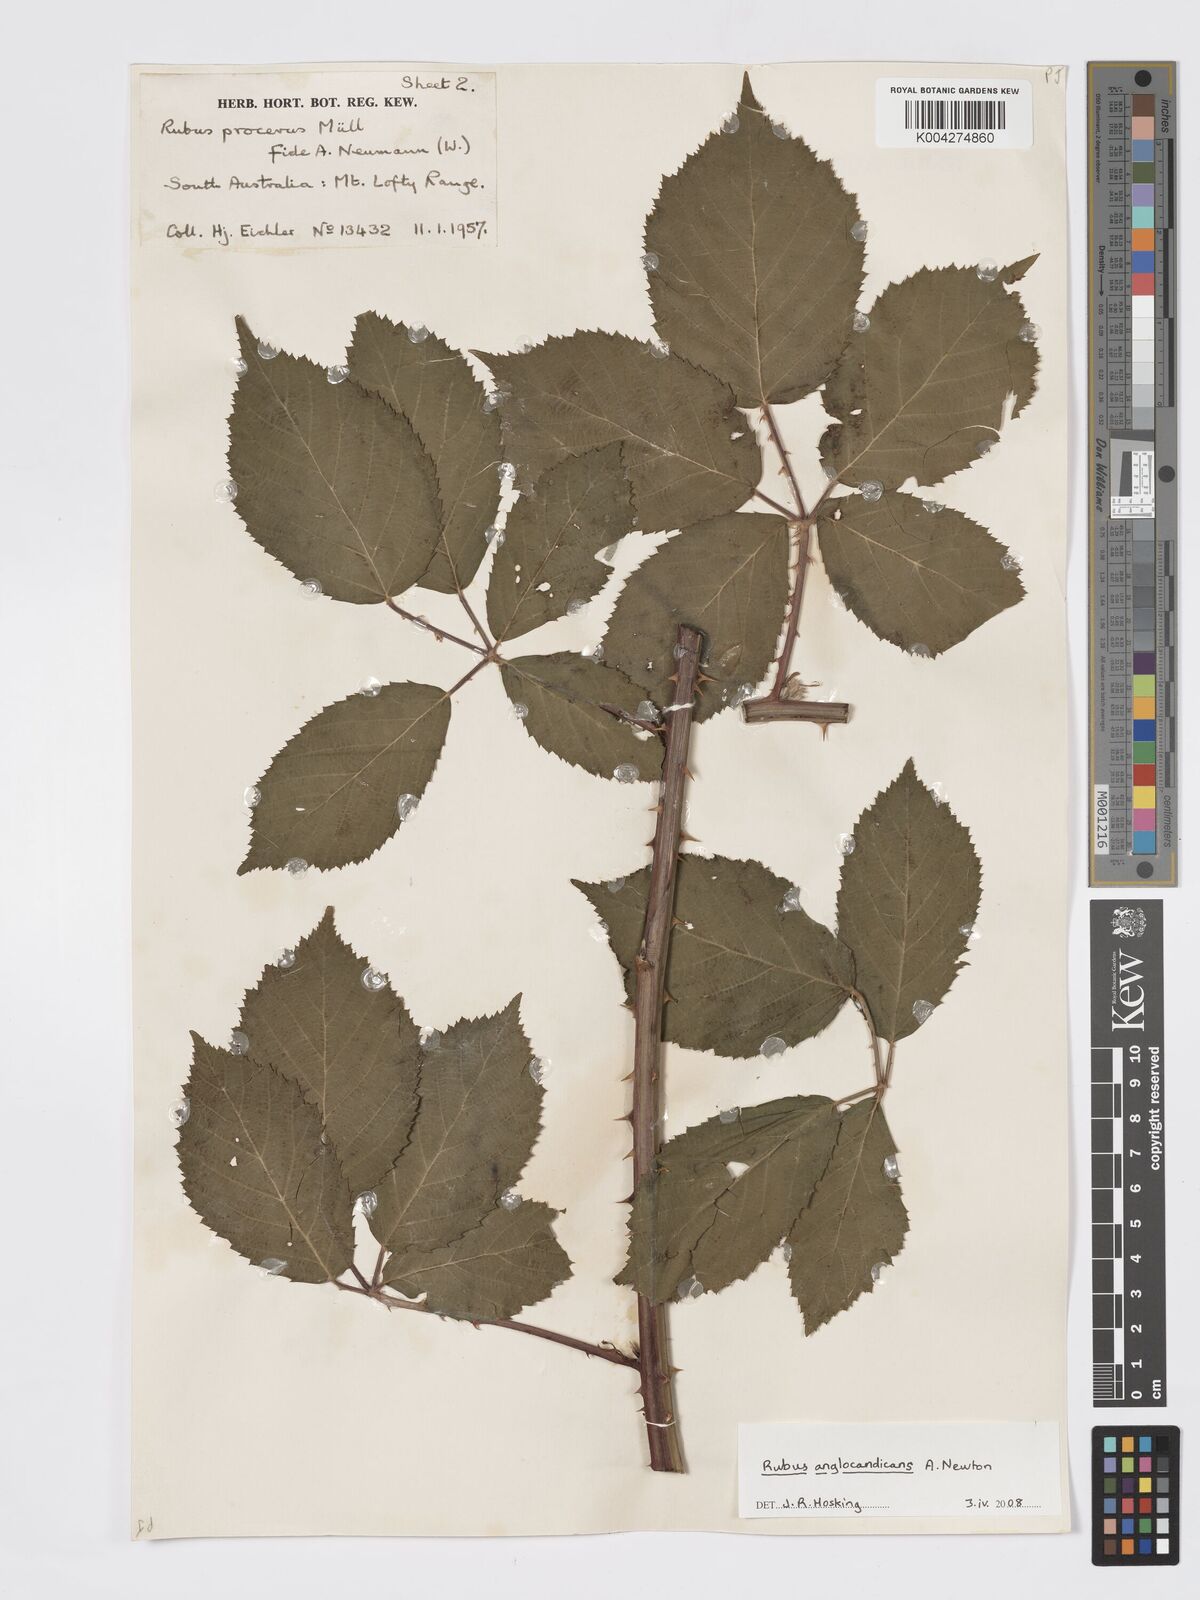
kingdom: Plantae
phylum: Tracheophyta
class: Magnoliopsida
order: Rosales
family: Rosaceae
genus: Rubus
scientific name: Rubus anglocandicans
